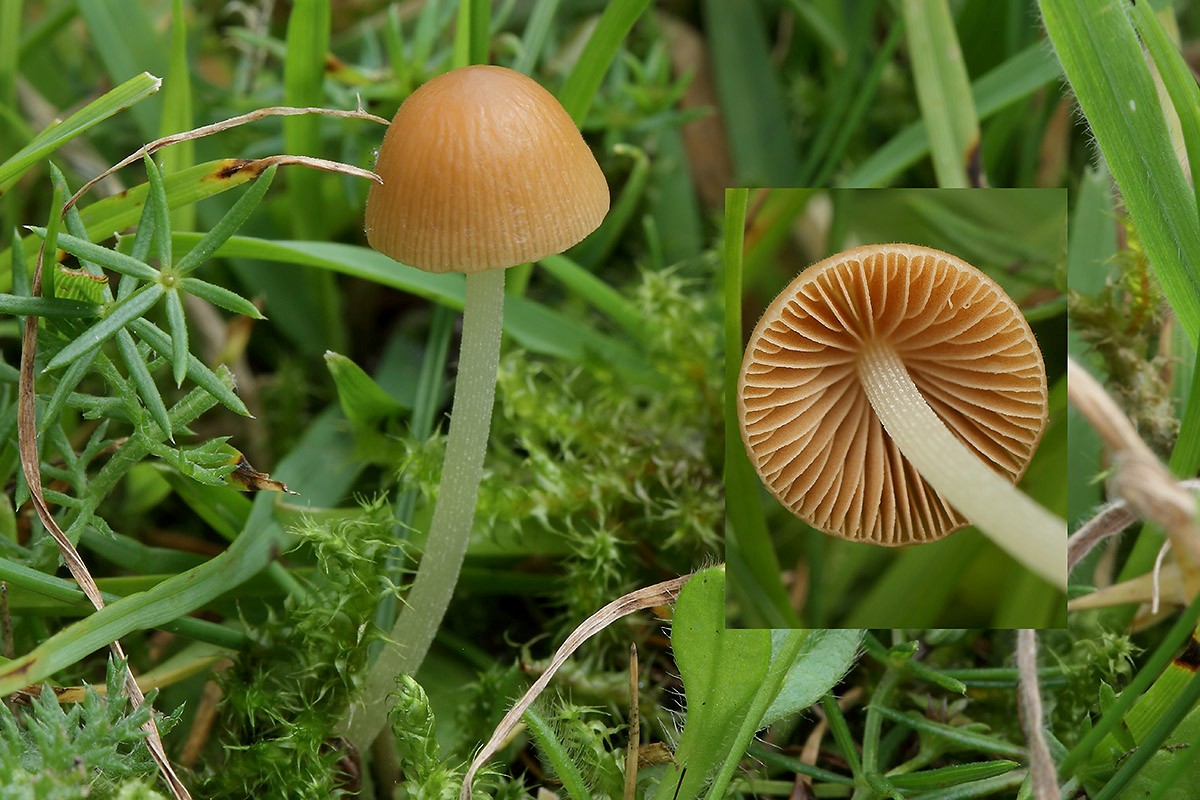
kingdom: Fungi
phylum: Basidiomycota
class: Agaricomycetes
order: Agaricales
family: Bolbitiaceae
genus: Conocybe
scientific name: Conocybe alboradicans
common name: rod-keglehat
